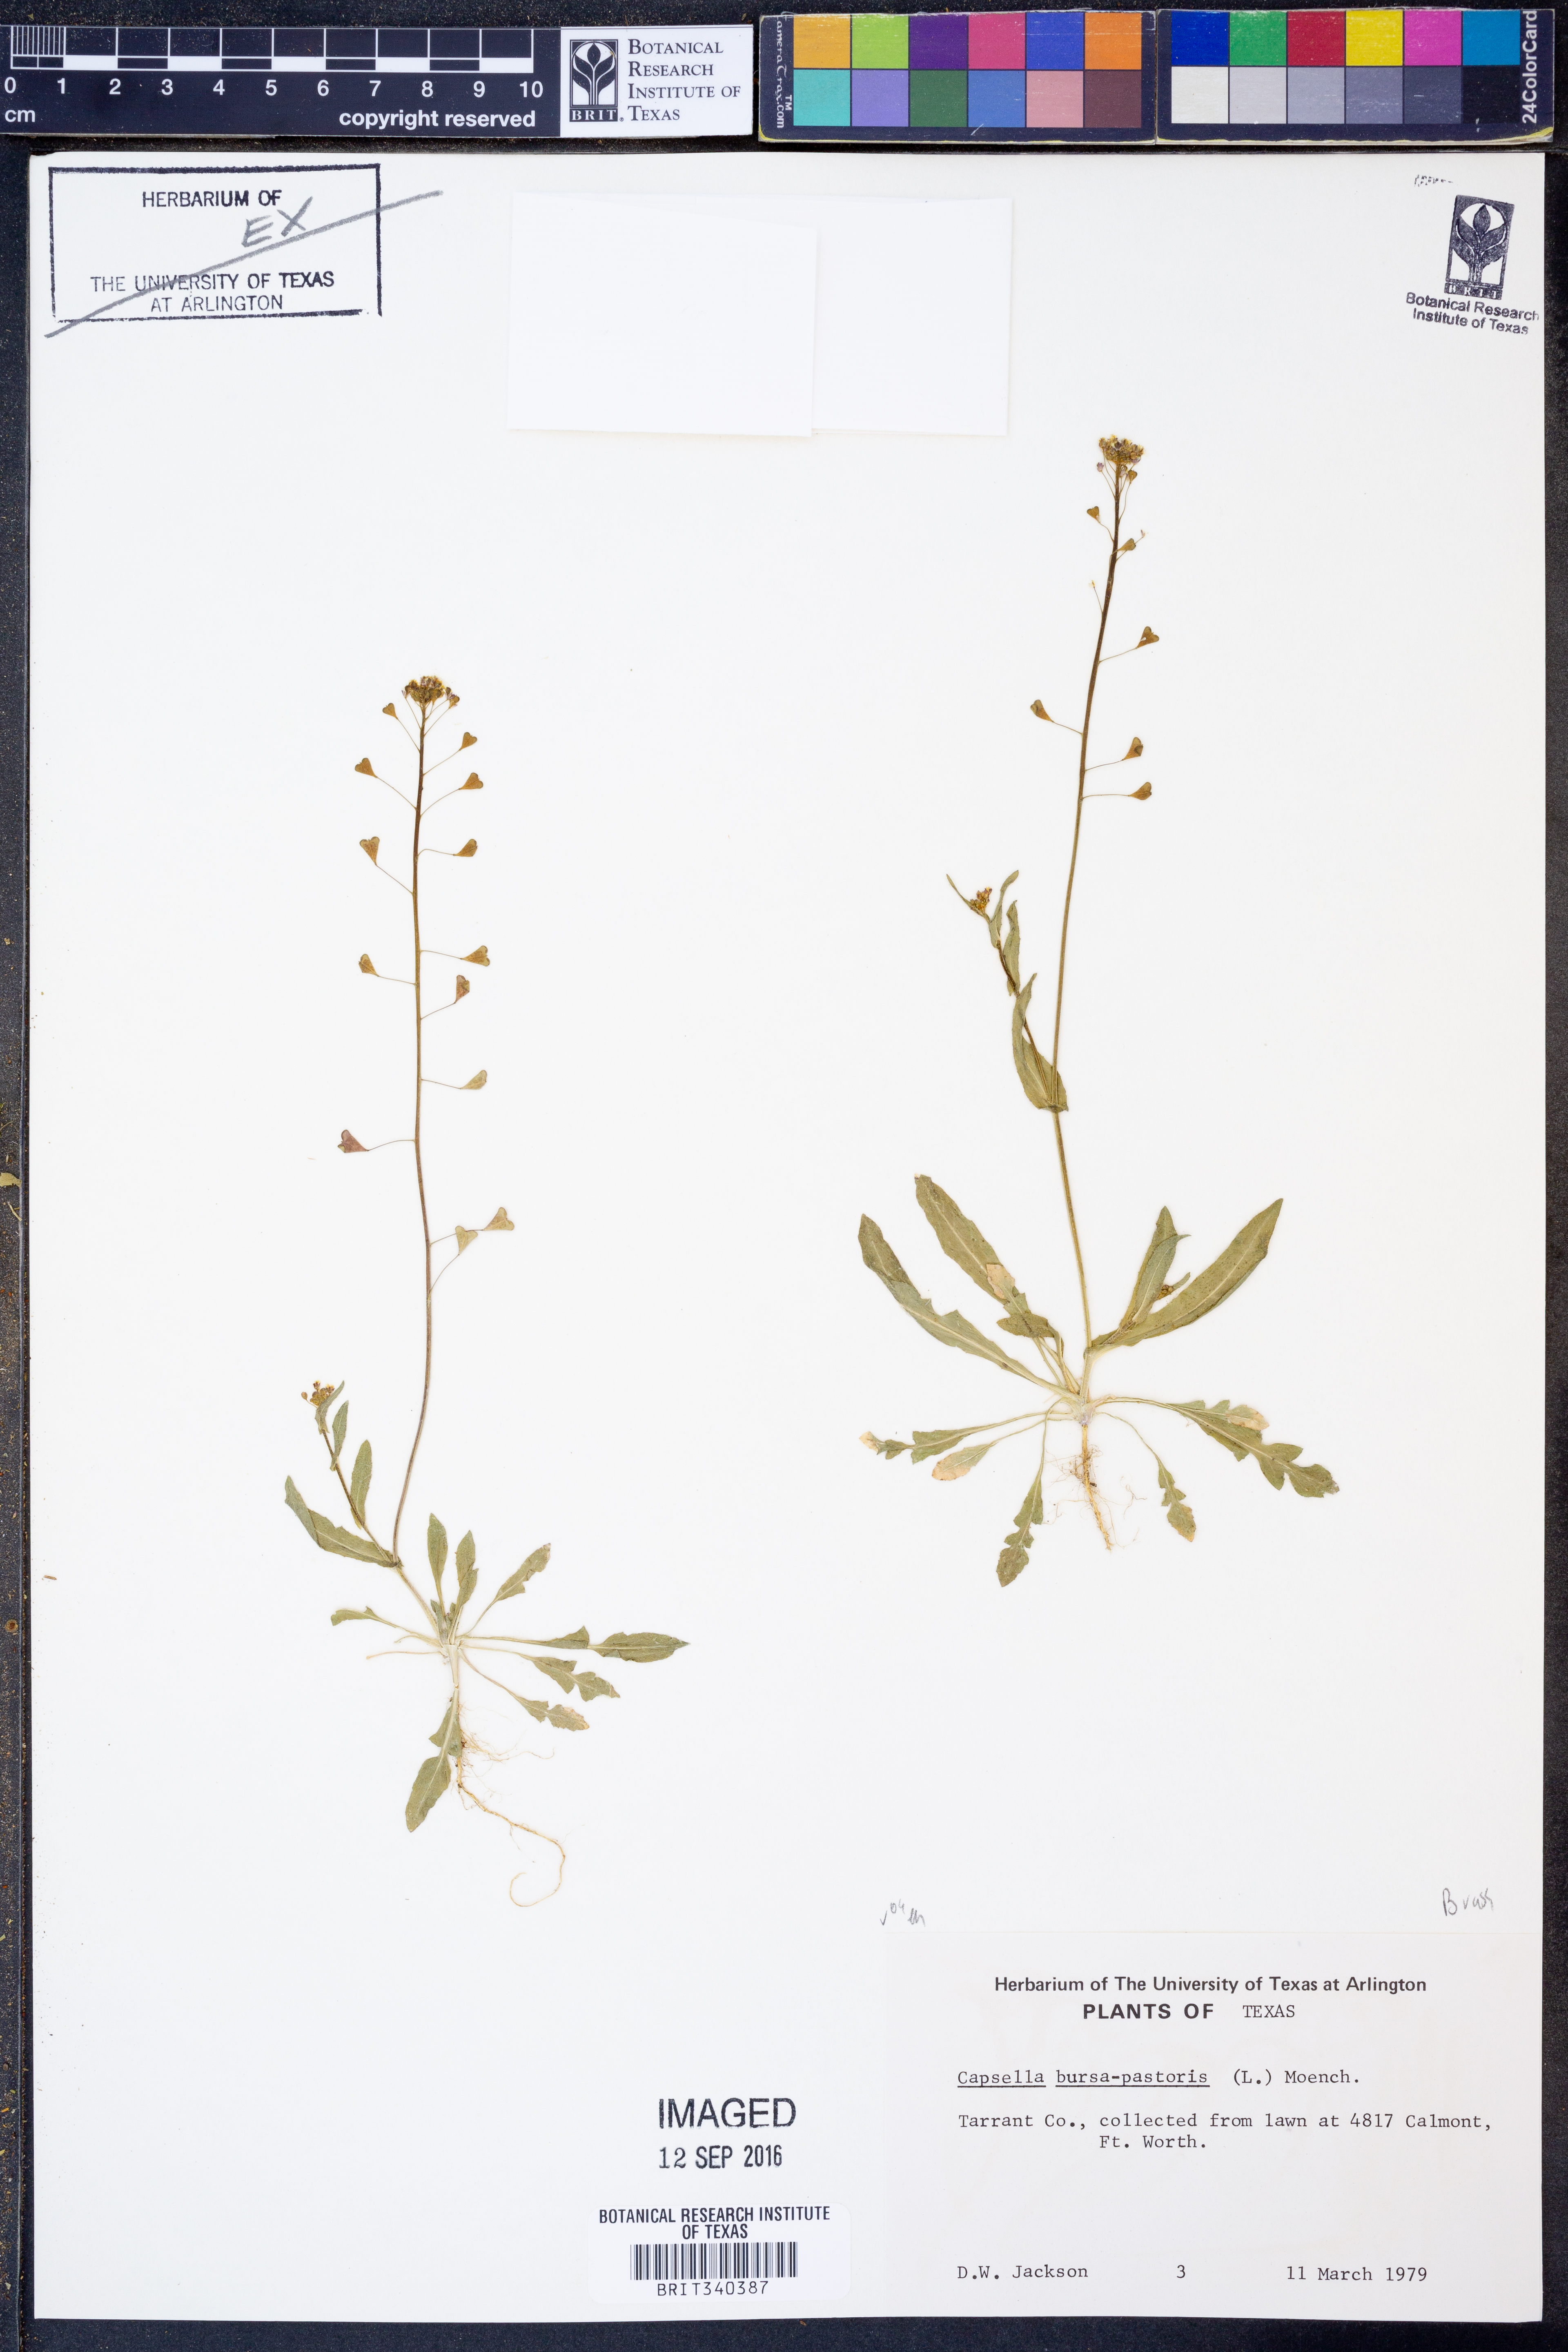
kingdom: Plantae
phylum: Tracheophyta
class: Magnoliopsida
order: Brassicales
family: Brassicaceae
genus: Capsella
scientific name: Capsella bursa-pastoris
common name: Shepherd's purse
